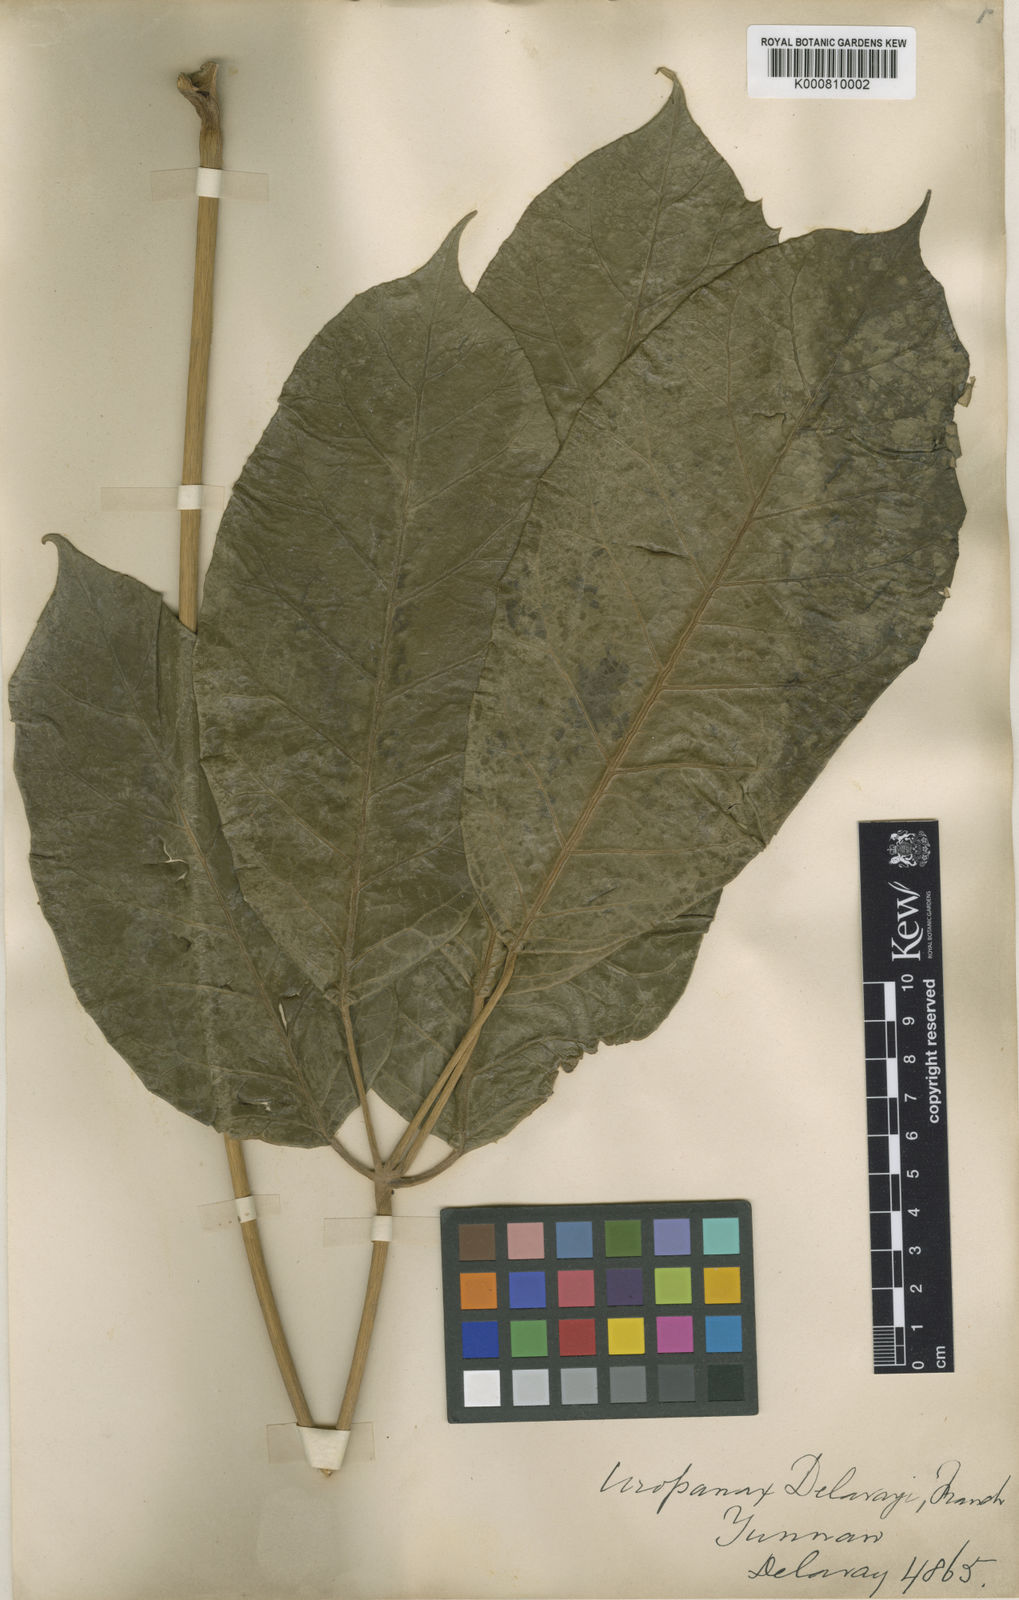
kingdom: Plantae
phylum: Tracheophyta
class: Magnoliopsida
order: Apiales
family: Araliaceae
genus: Heptapleurum
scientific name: Heptapleurum delavayi
